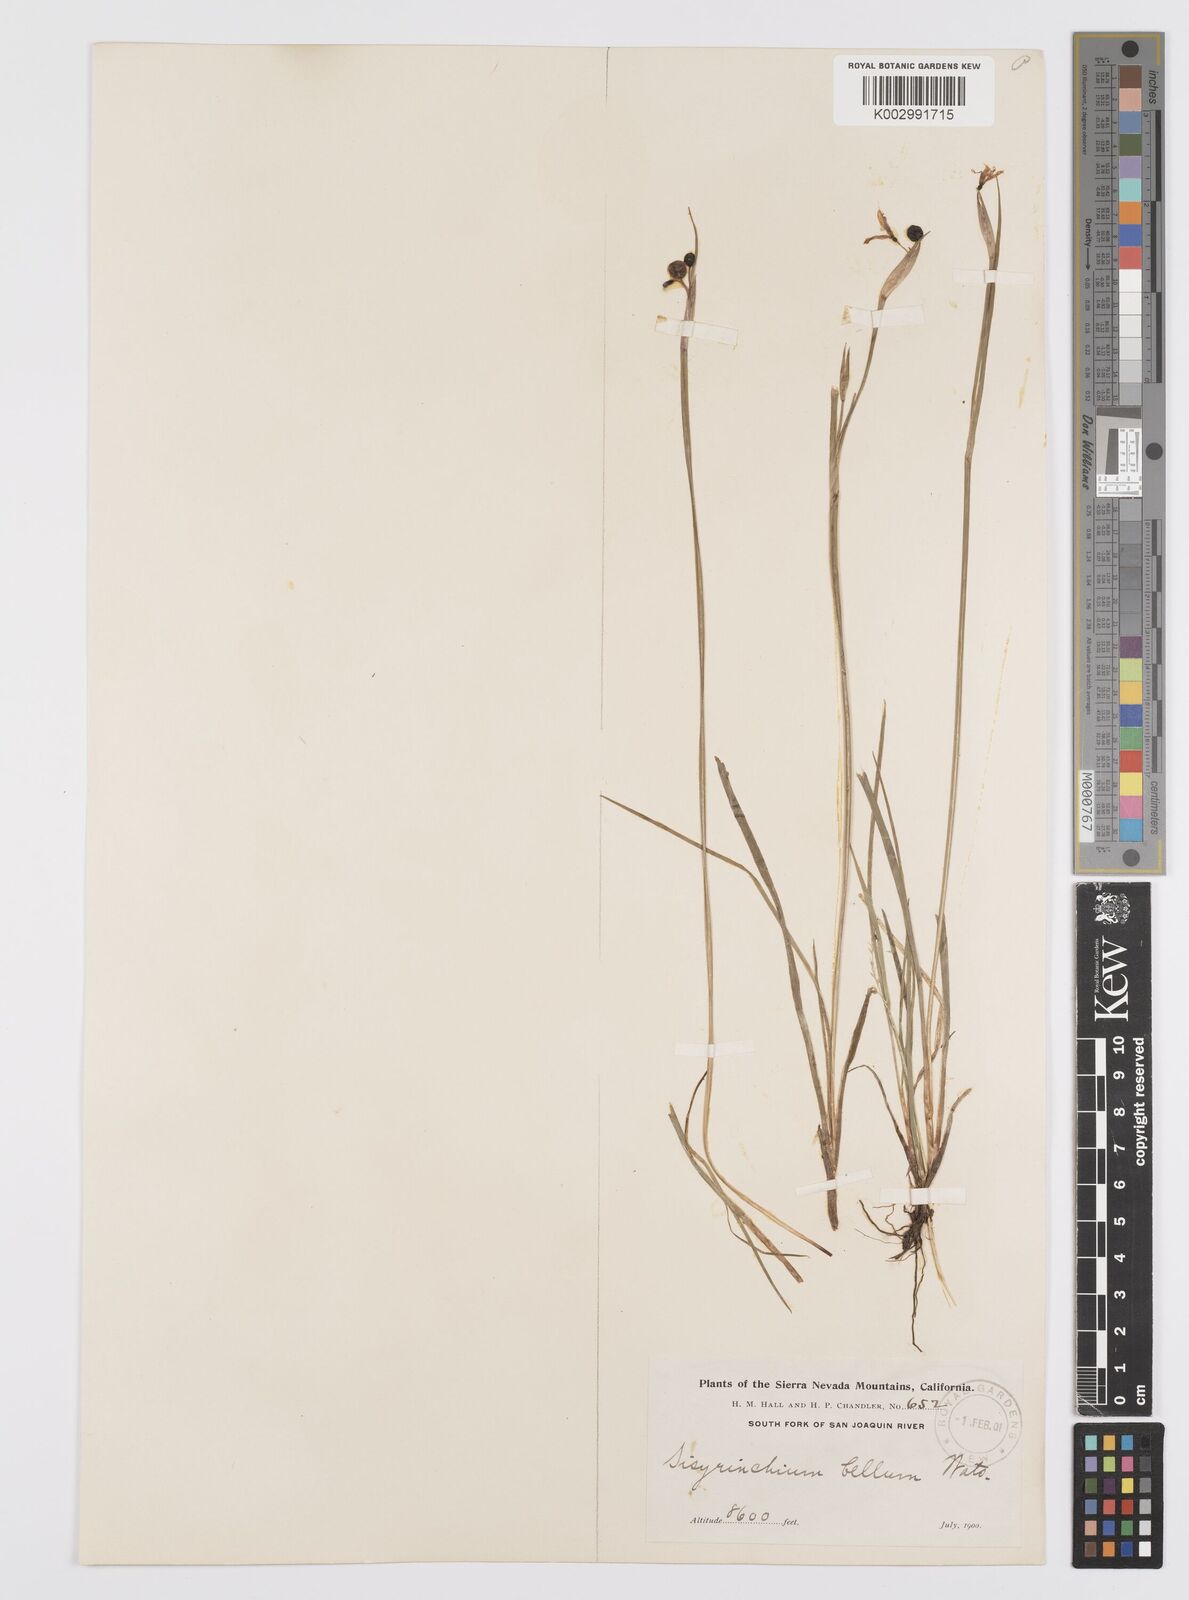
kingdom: Plantae
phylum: Tracheophyta
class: Liliopsida
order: Asparagales
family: Iridaceae
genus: Sisyrinchium
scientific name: Sisyrinchium bellum
